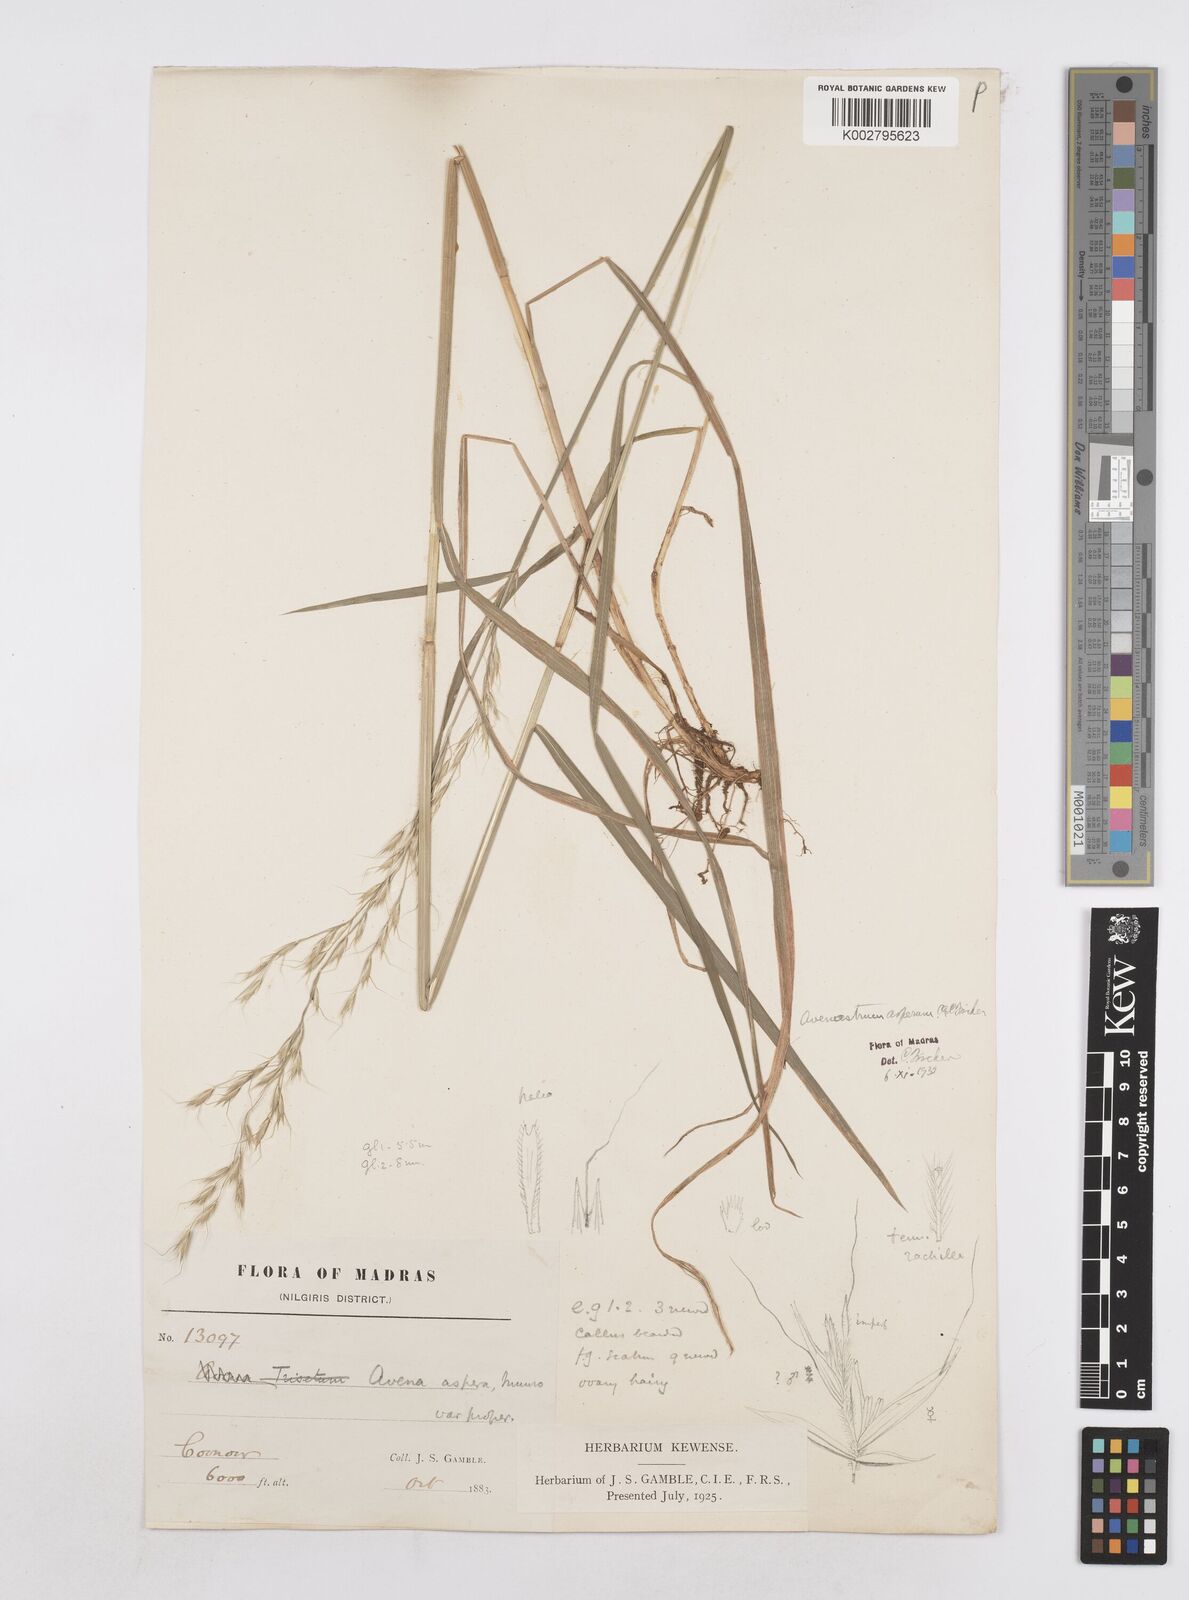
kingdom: Plantae
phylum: Tracheophyta
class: Liliopsida
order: Poales
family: Poaceae
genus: Helictotrichon
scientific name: Helictotrichon
